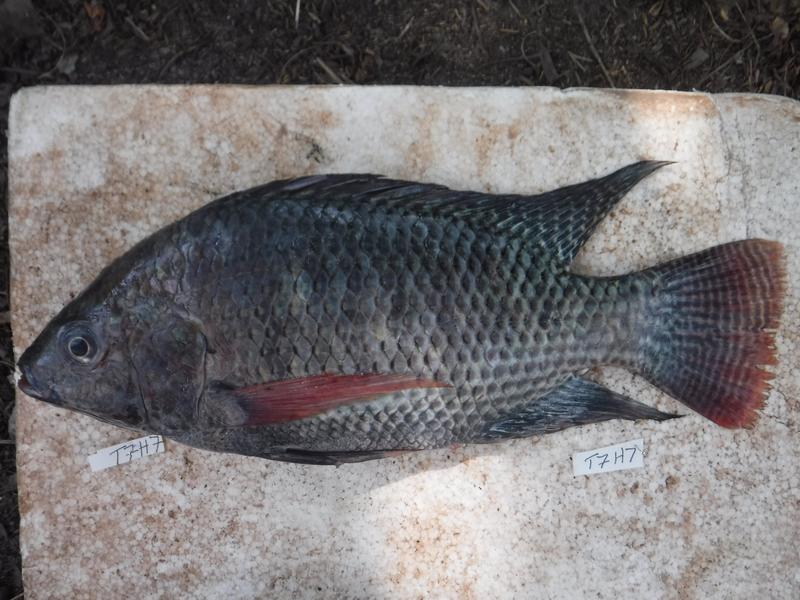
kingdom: Animalia
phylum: Chordata
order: Perciformes
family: Cichlidae
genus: Oreochromis
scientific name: Oreochromis niloticus
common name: Nile tilapia
